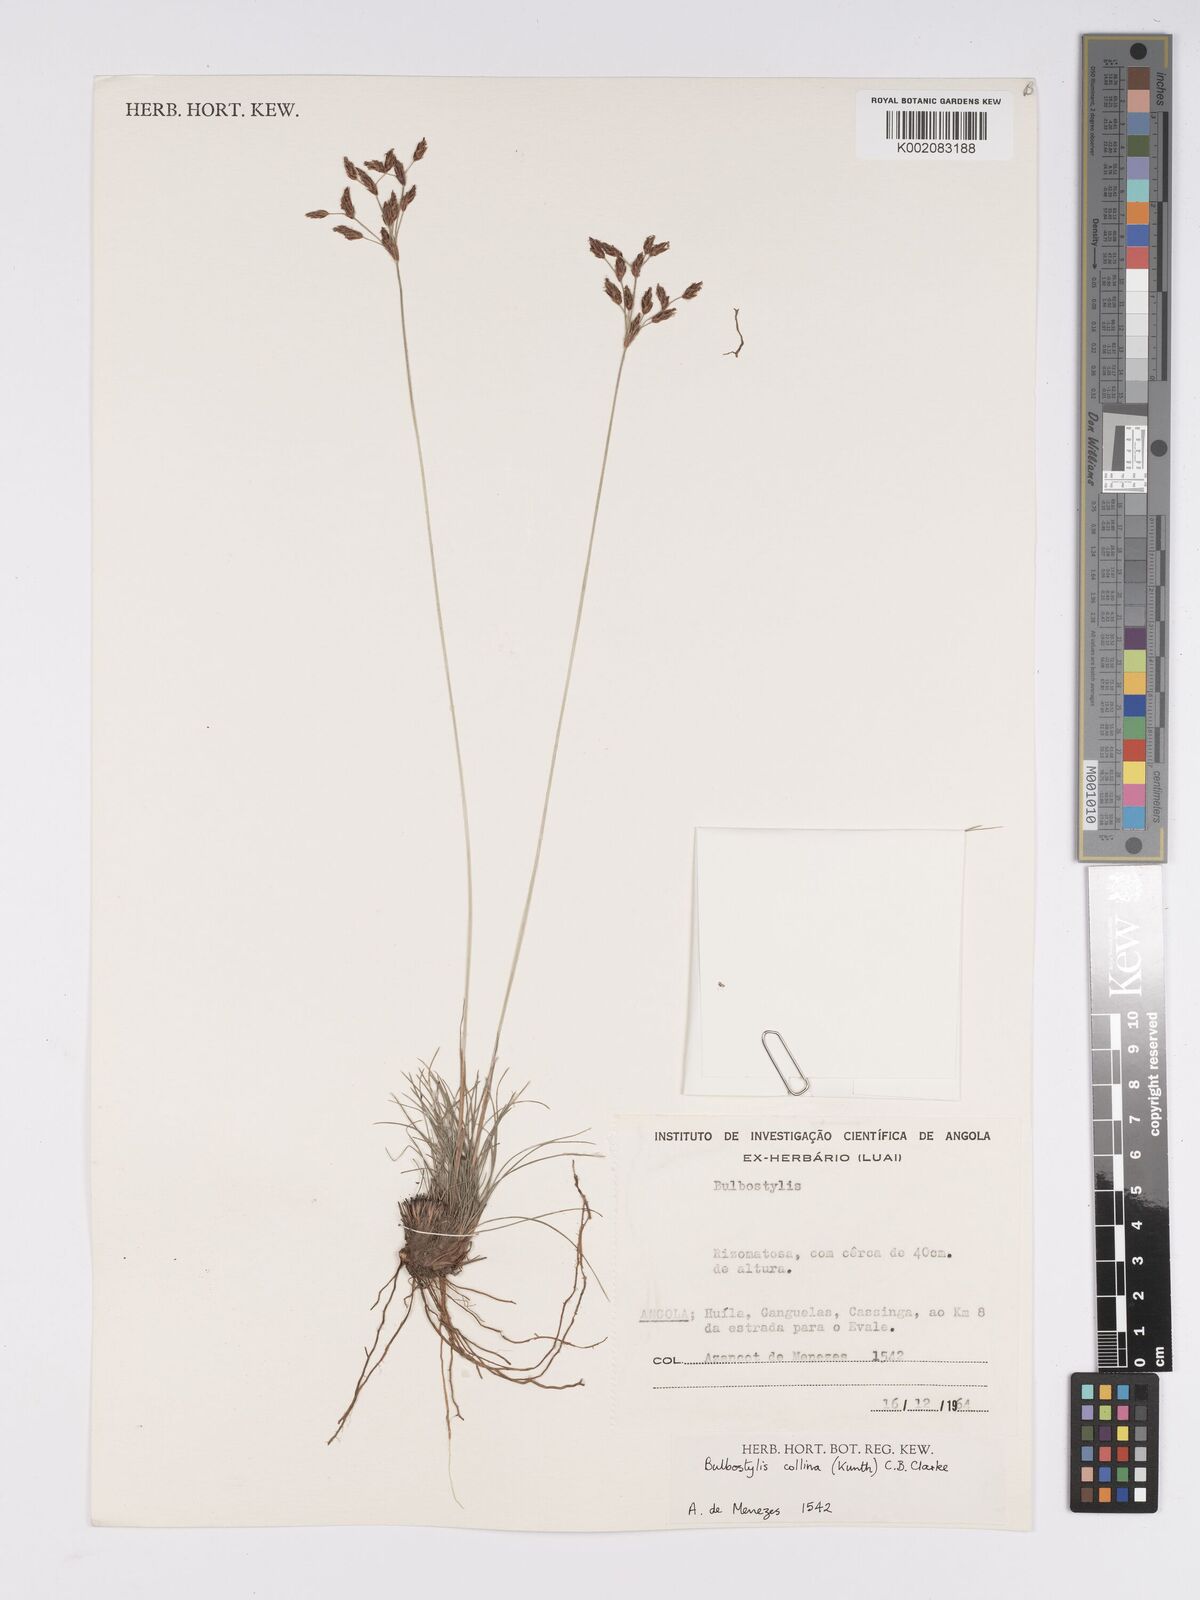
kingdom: Plantae
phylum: Tracheophyta
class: Liliopsida
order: Poales
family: Cyperaceae
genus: Bulbostylis
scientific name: Bulbostylis contexta
